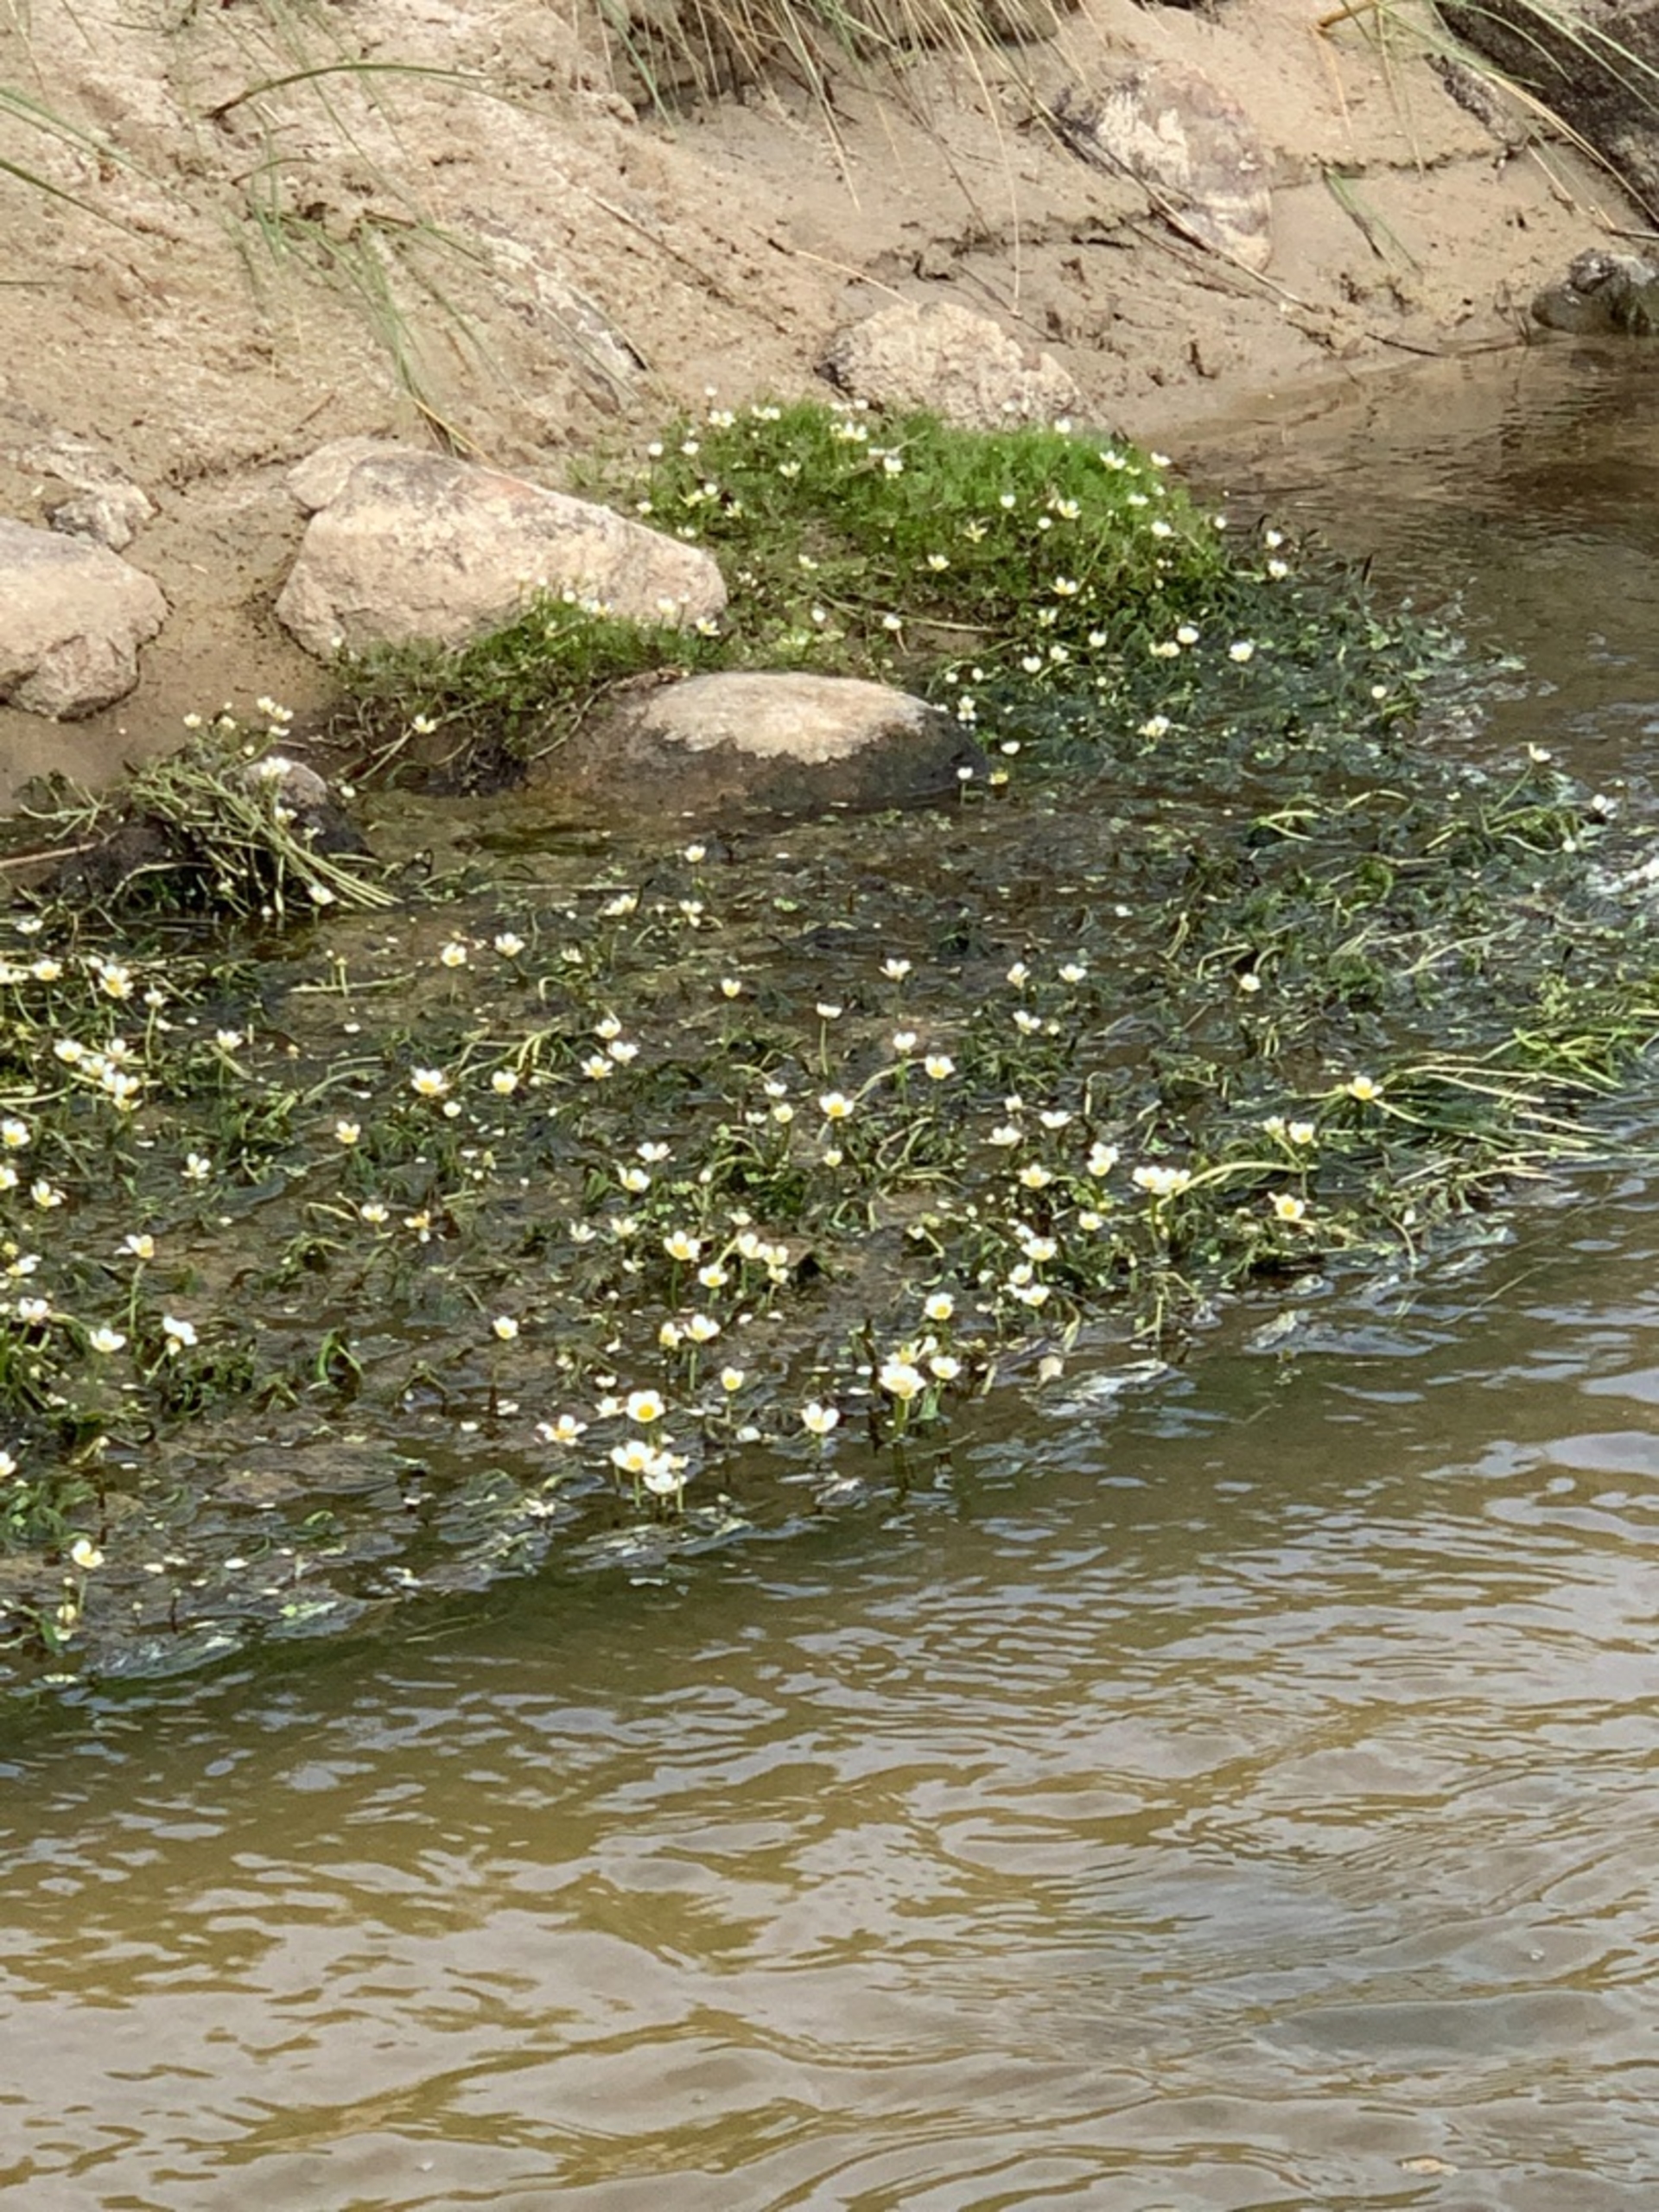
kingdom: Plantae
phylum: Tracheophyta
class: Magnoliopsida
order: Ranunculales
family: Ranunculaceae
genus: Ranunculus
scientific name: Ranunculus
